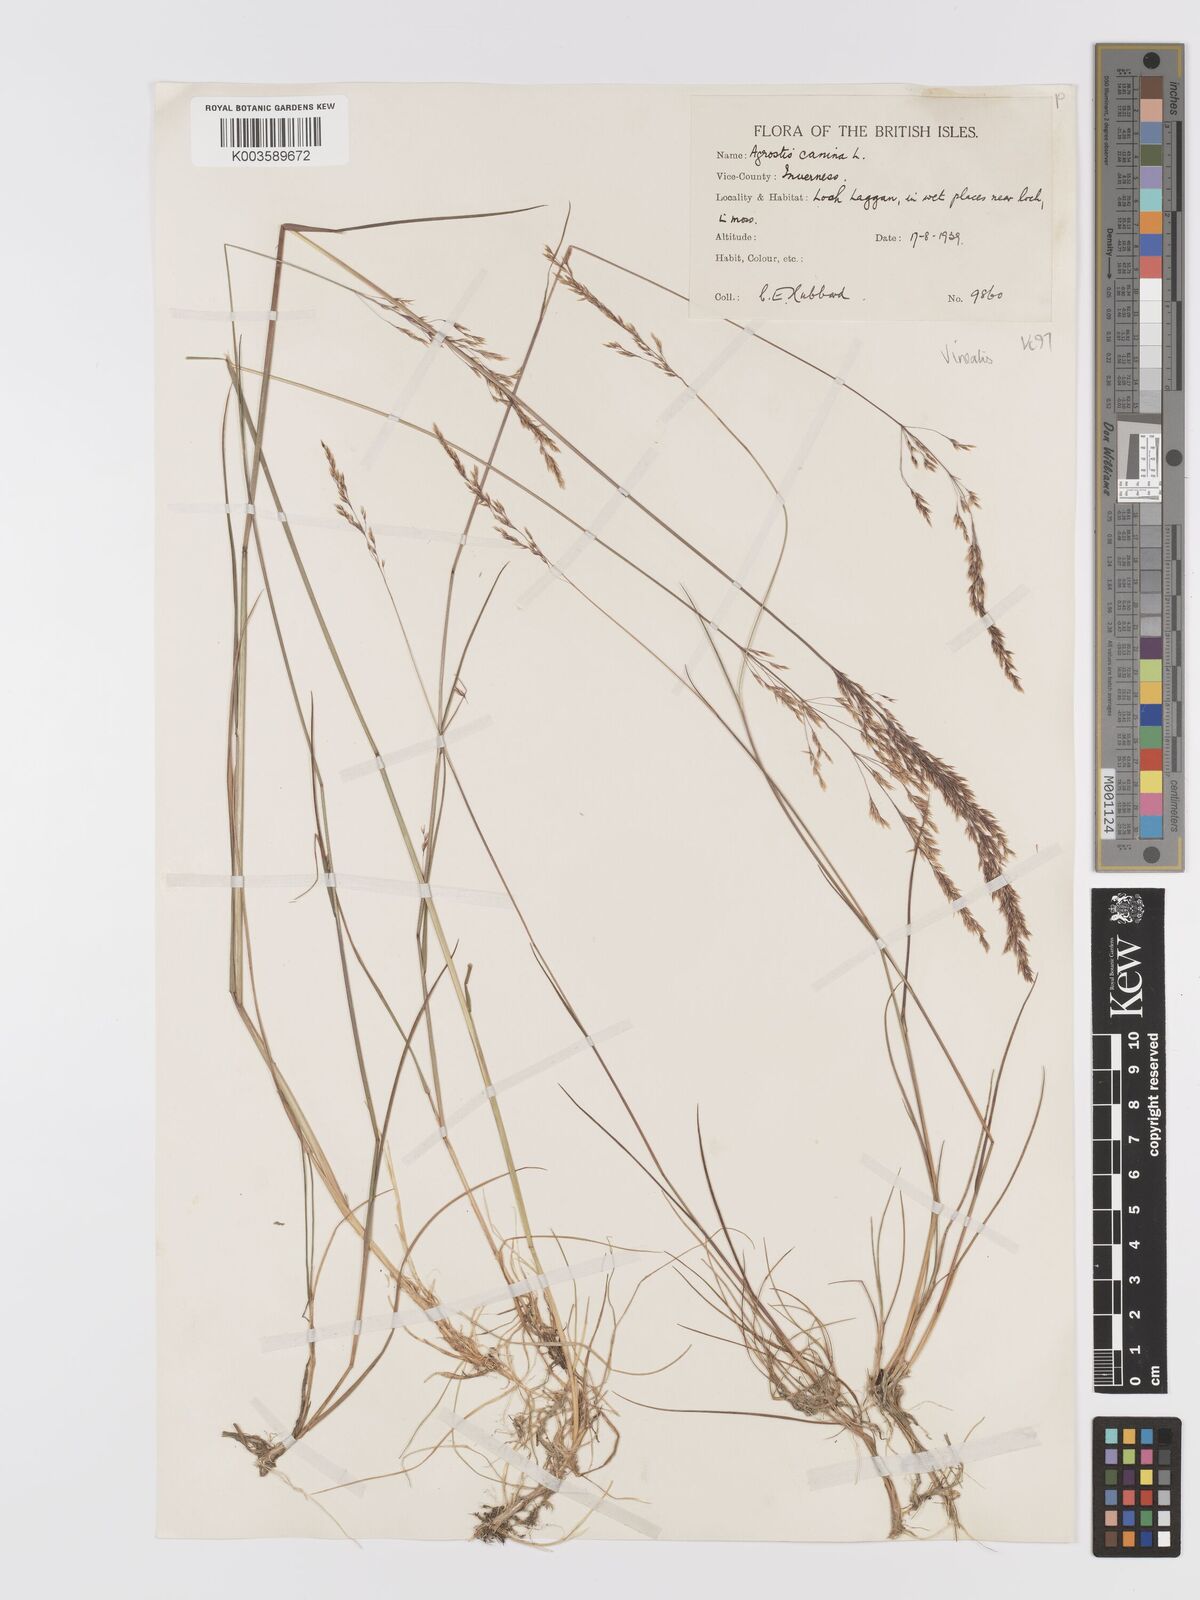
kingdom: Plantae
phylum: Tracheophyta
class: Liliopsida
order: Poales
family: Poaceae
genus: Agrostis
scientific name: Agrostis
